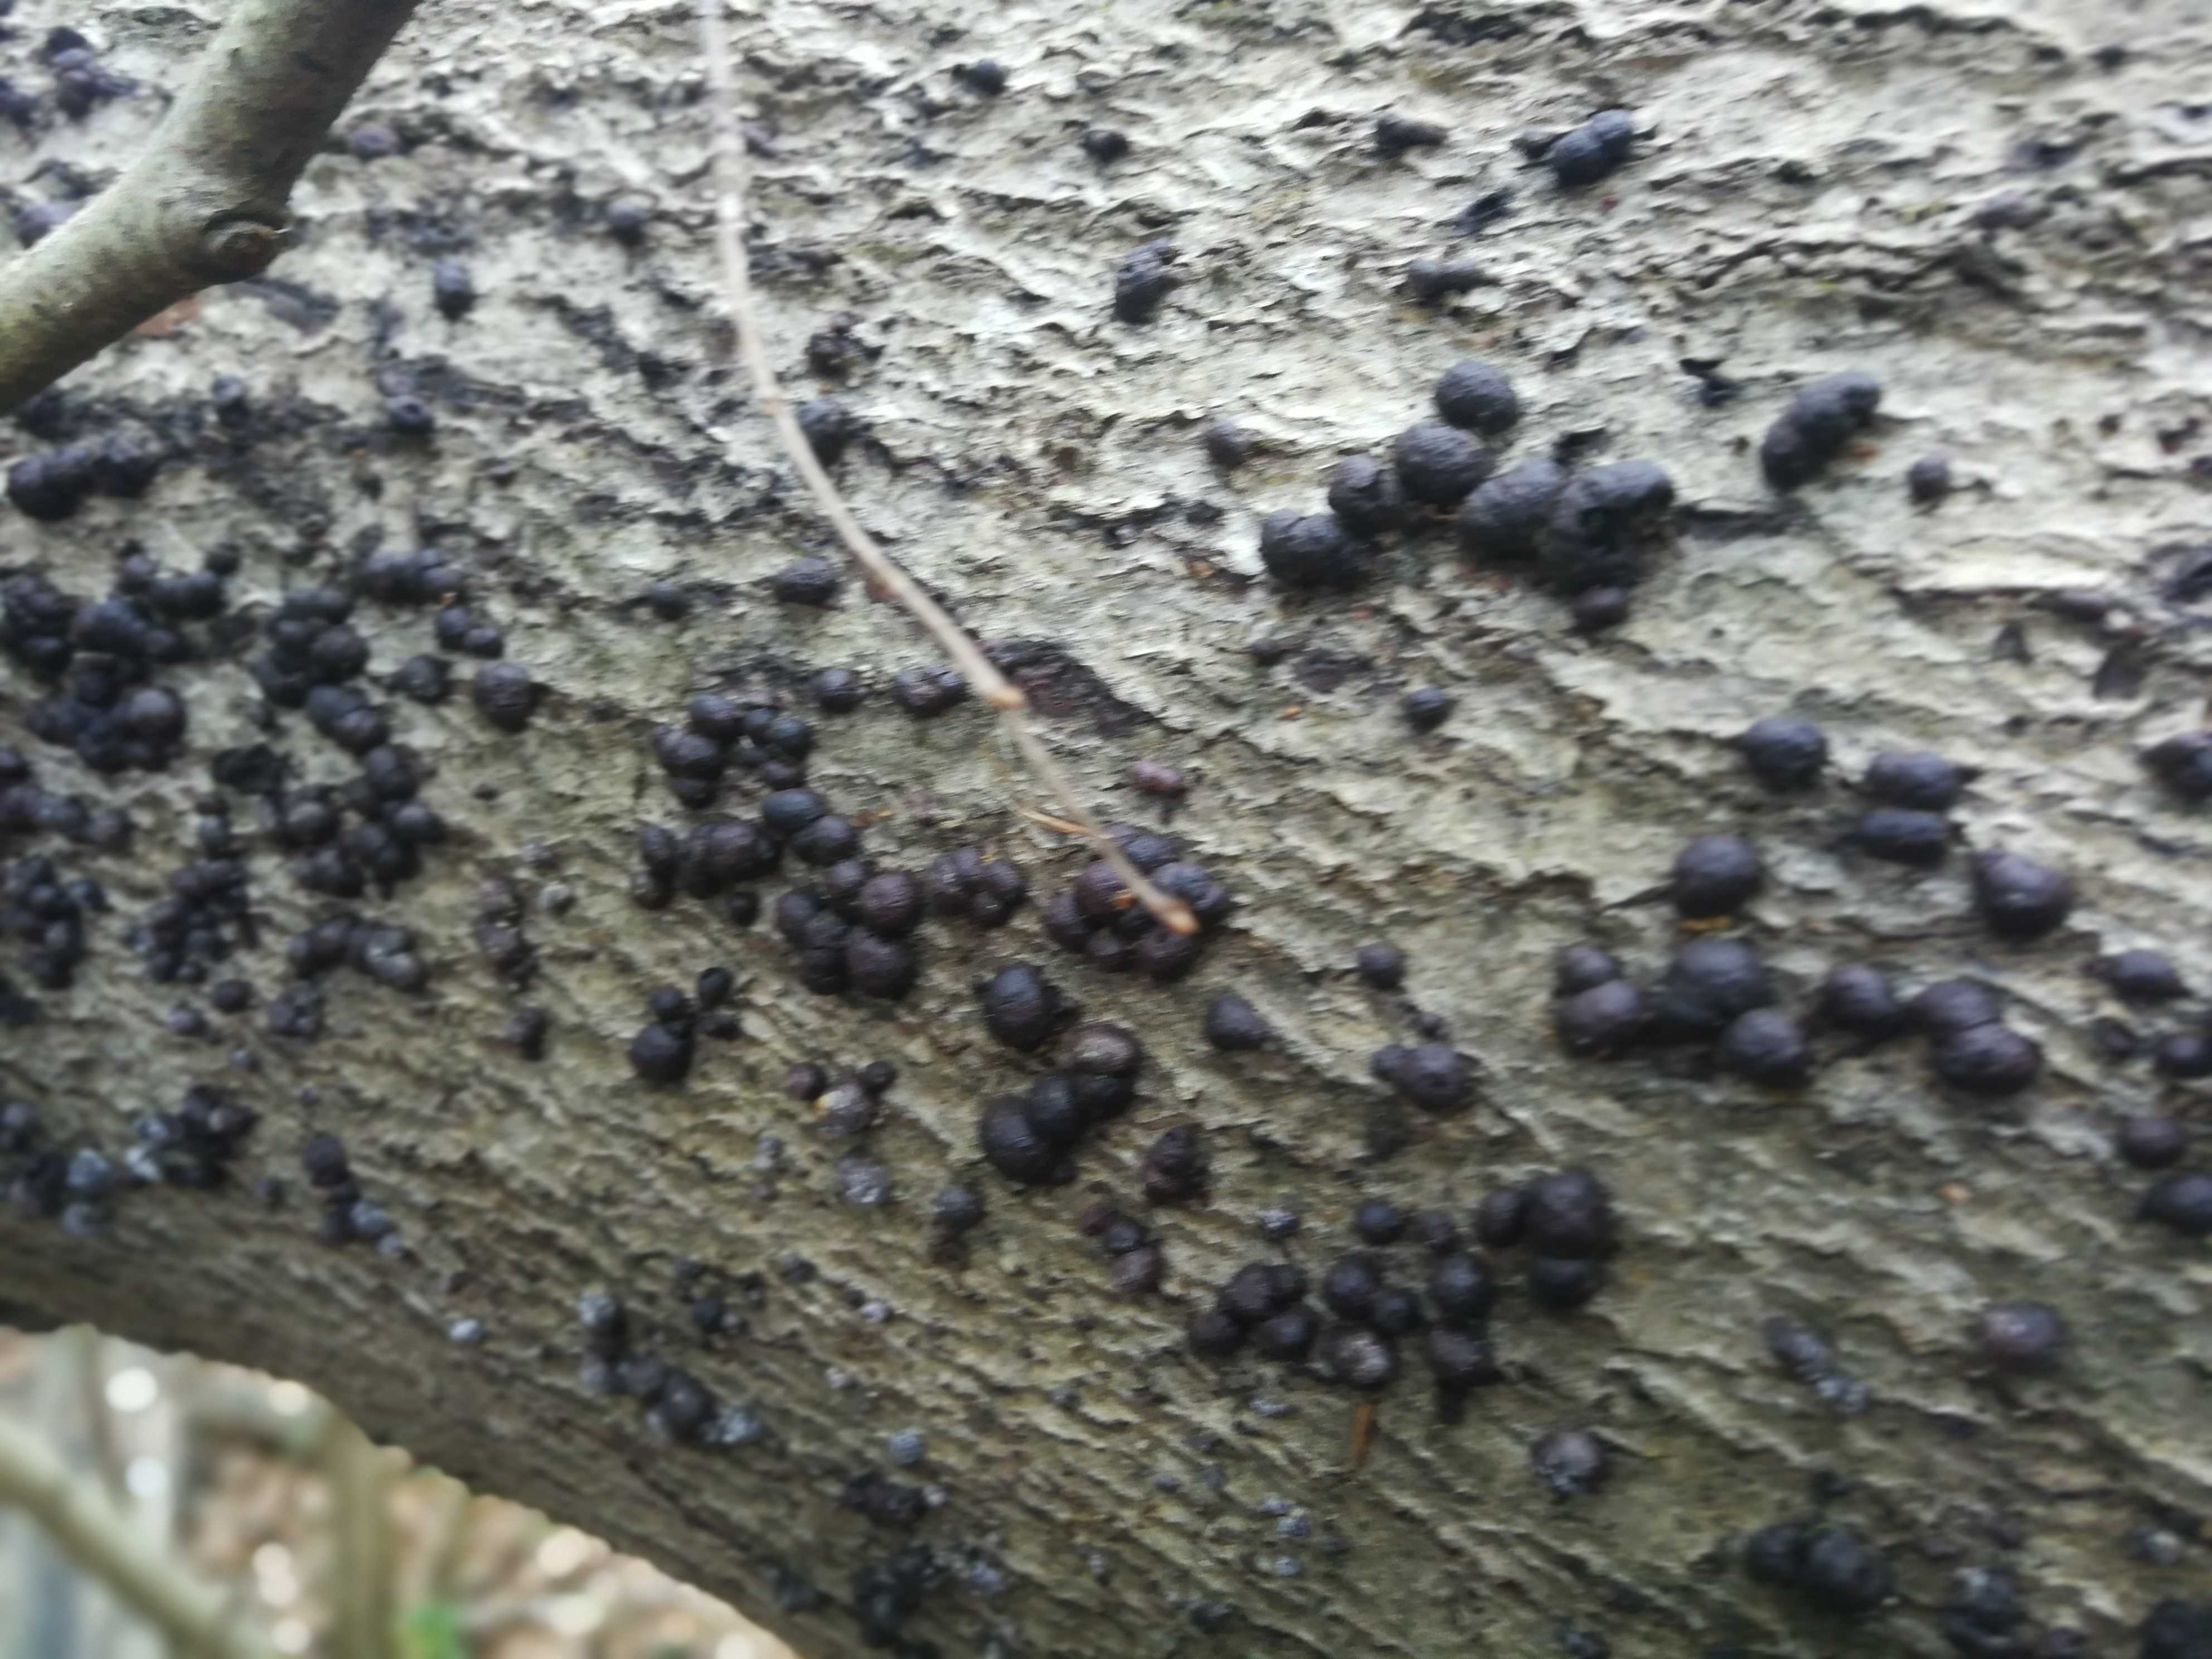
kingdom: Fungi
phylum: Ascomycota
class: Sordariomycetes
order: Xylariales
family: Hypoxylaceae
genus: Hypoxylon
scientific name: Hypoxylon fragiforme
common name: kuljordbær
